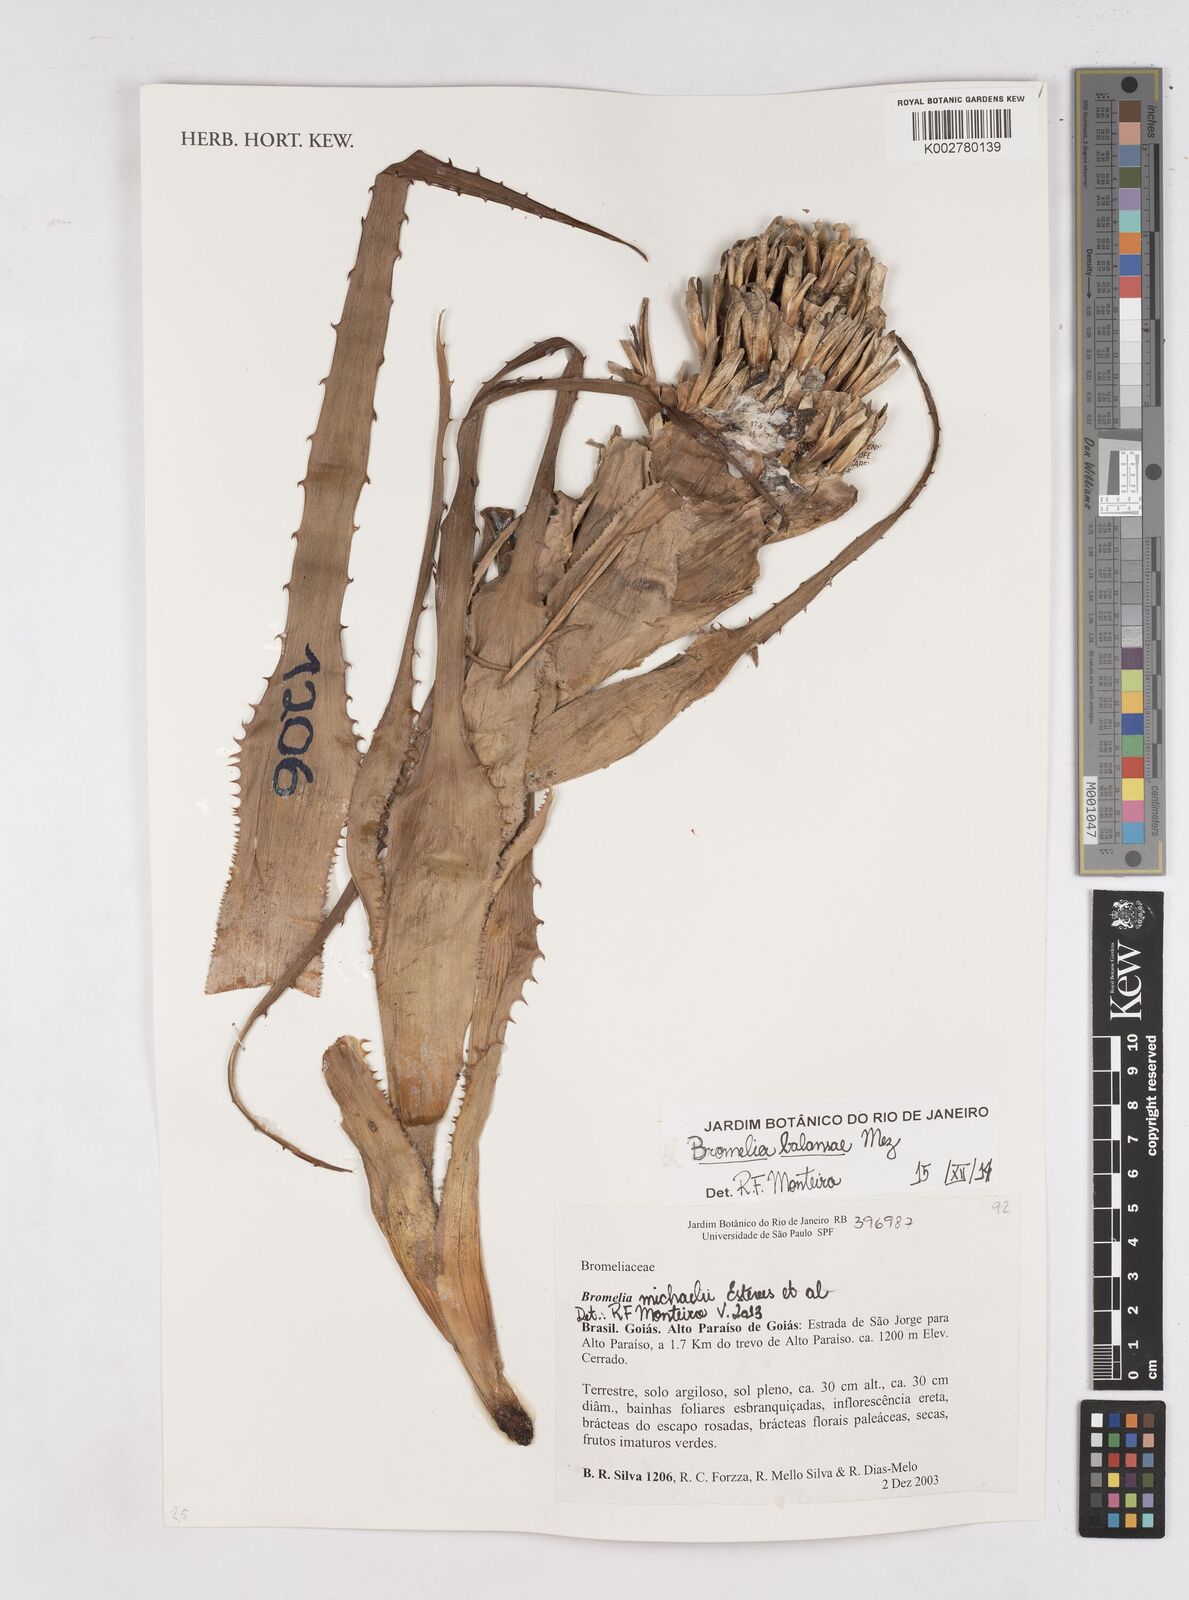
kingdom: Plantae
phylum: Tracheophyta
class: Liliopsida
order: Poales
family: Bromeliaceae
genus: Bromelia
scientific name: Bromelia balansae
